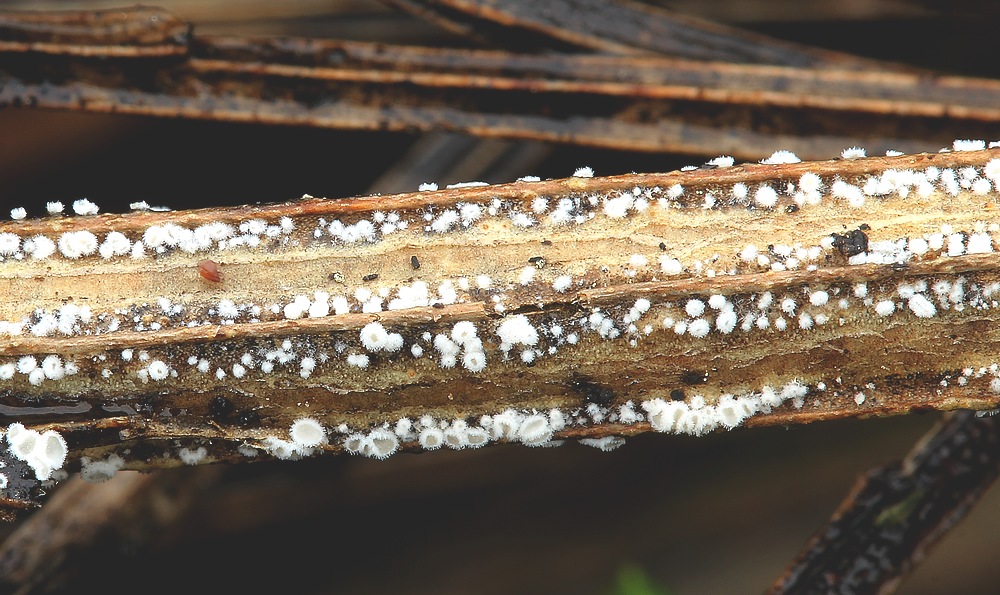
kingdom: Fungi
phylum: Basidiomycota
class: Agaricomycetes
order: Agaricales
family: Niaceae
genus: Lachnella
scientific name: Lachnella alboviolascens
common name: grå frynserede
